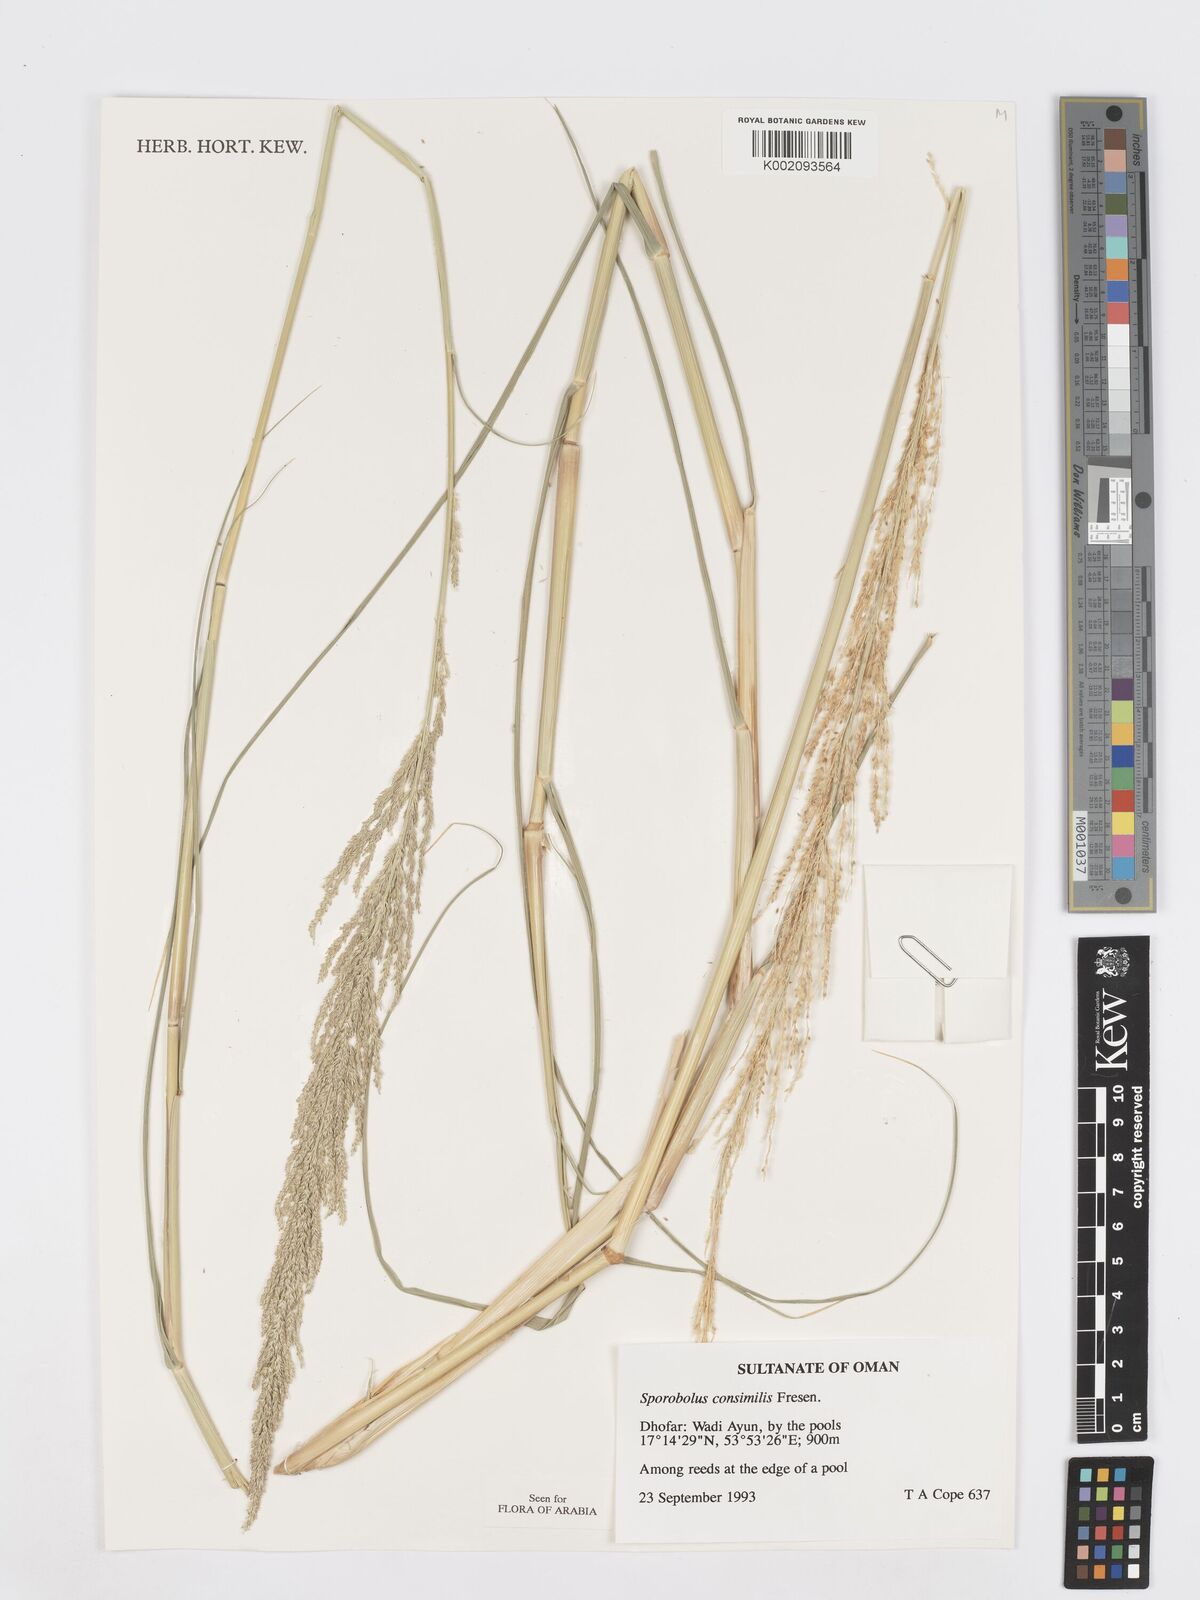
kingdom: Plantae
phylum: Tracheophyta
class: Liliopsida
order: Poales
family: Poaceae
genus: Sporobolus
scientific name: Sporobolus consimilis
